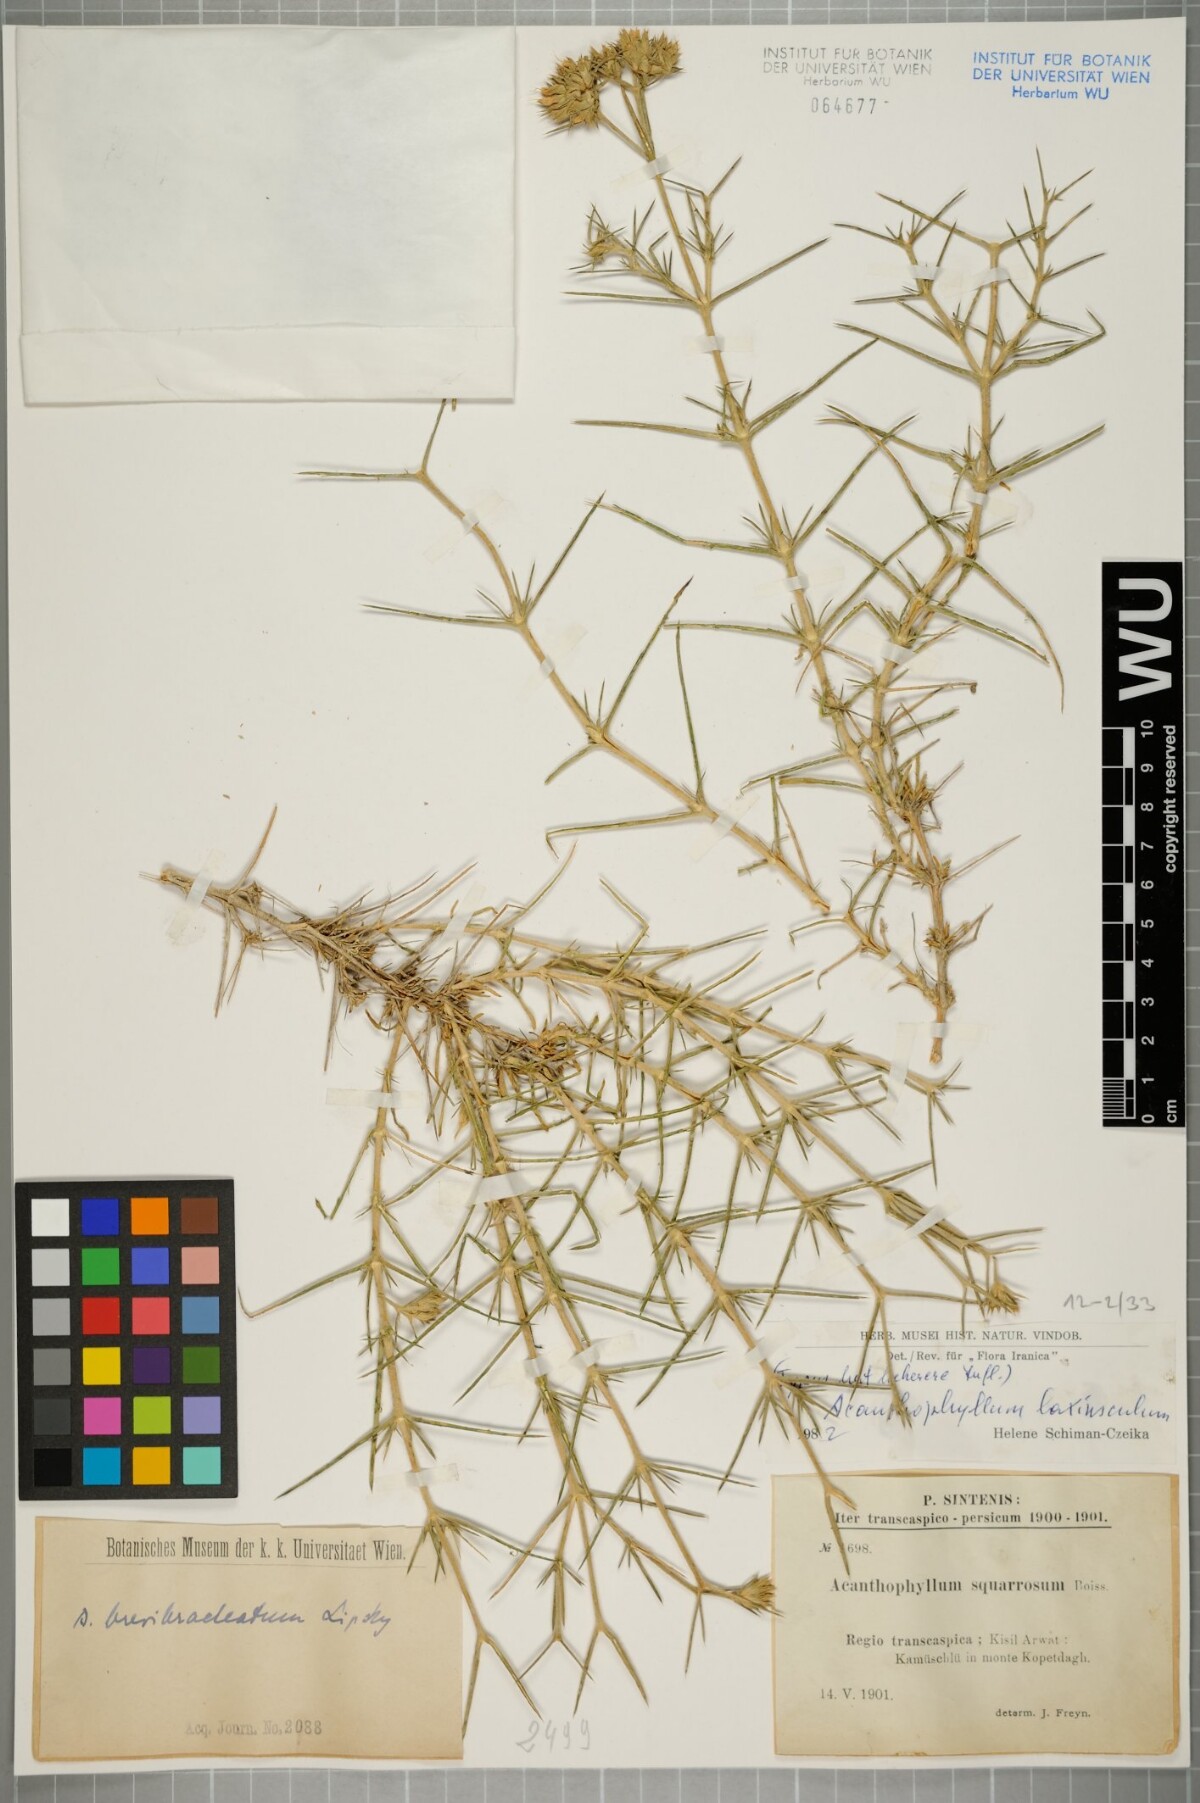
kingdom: Plantae
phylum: Tracheophyta
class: Magnoliopsida
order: Caryophyllales
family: Caryophyllaceae
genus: Acanthophyllum
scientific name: Acanthophyllum laxiusculum
